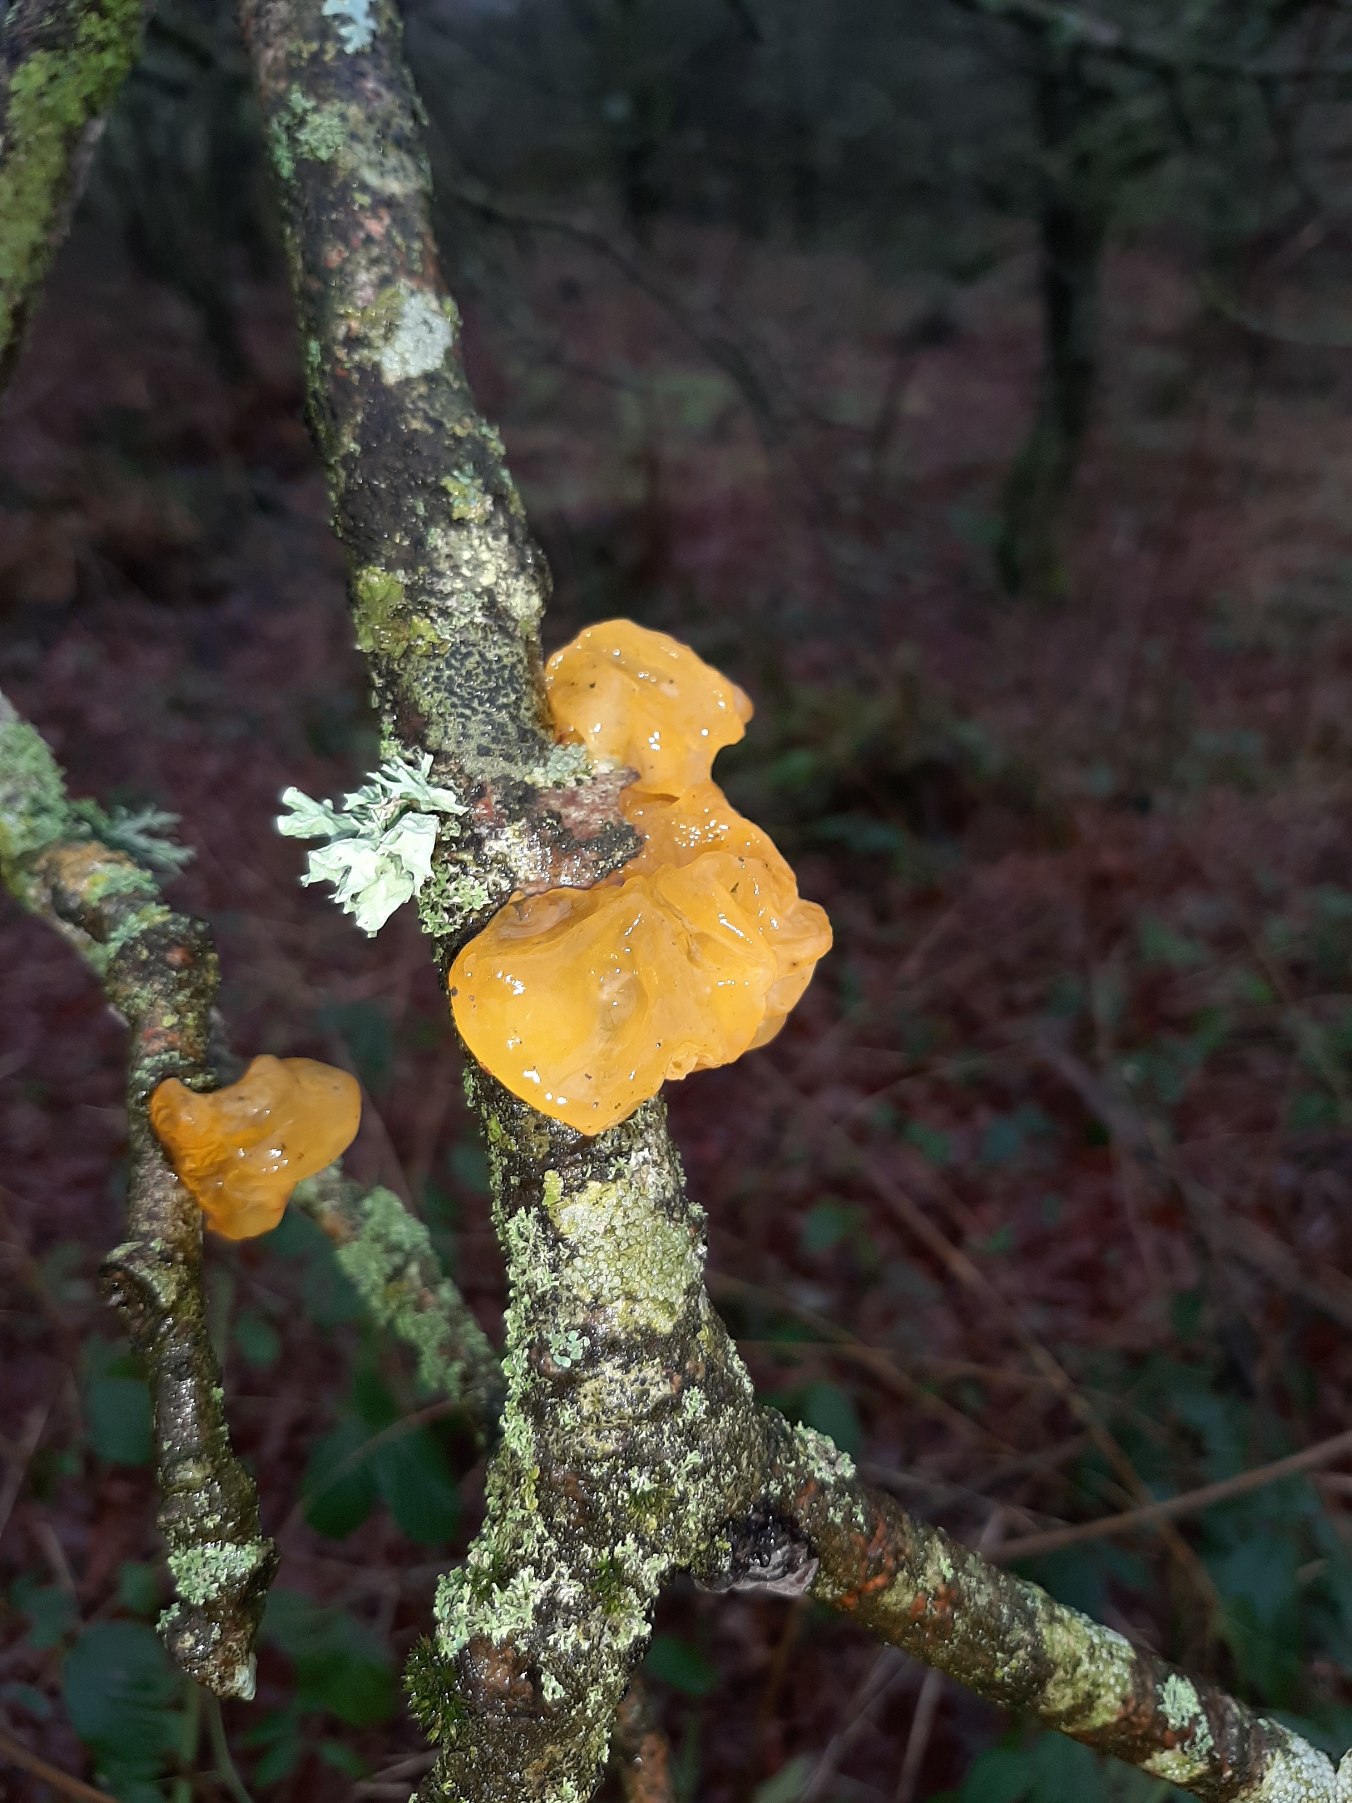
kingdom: Fungi
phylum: Basidiomycota
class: Tremellomycetes
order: Tremellales
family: Tremellaceae
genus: Tremella
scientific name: Tremella mesenterica
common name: Gul bævresvamp
